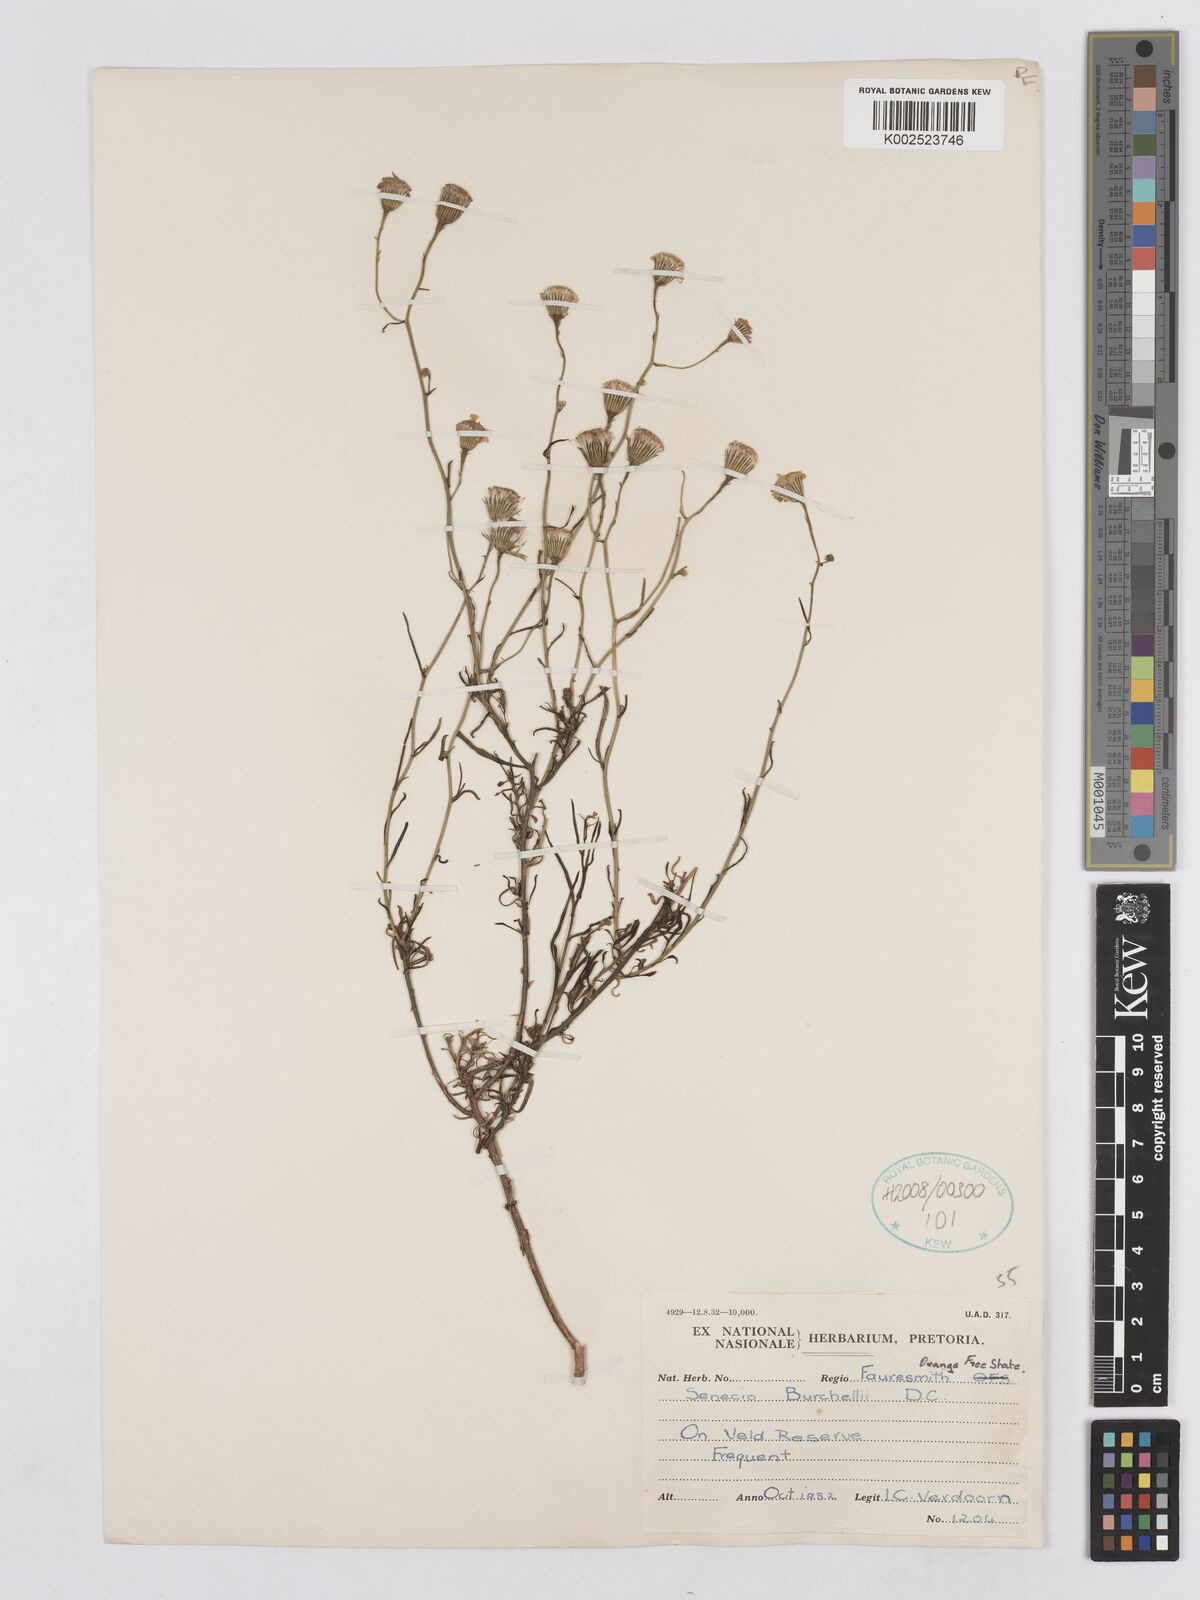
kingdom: Plantae
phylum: Tracheophyta
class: Magnoliopsida
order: Asterales
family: Asteraceae
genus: Senecio
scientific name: Senecio burchellii
